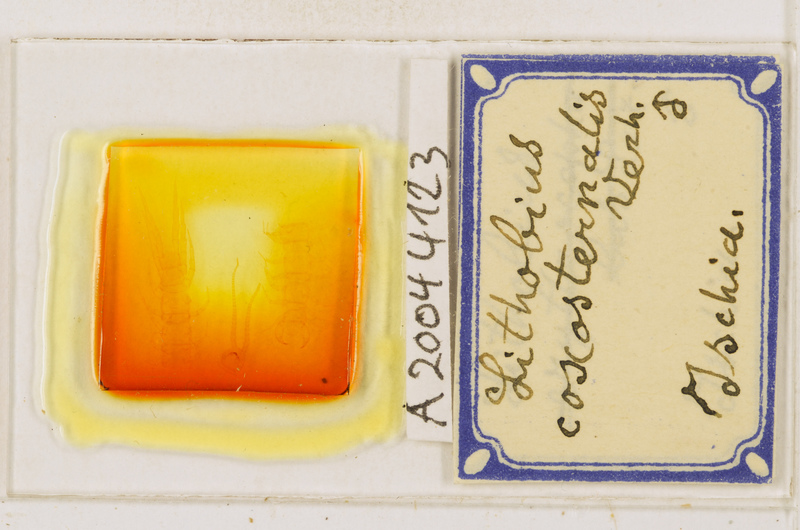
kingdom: Animalia
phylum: Arthropoda
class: Chilopoda
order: Lithobiomorpha
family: Lithobiidae
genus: Lithobius
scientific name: Lithobius erythrocephalus
